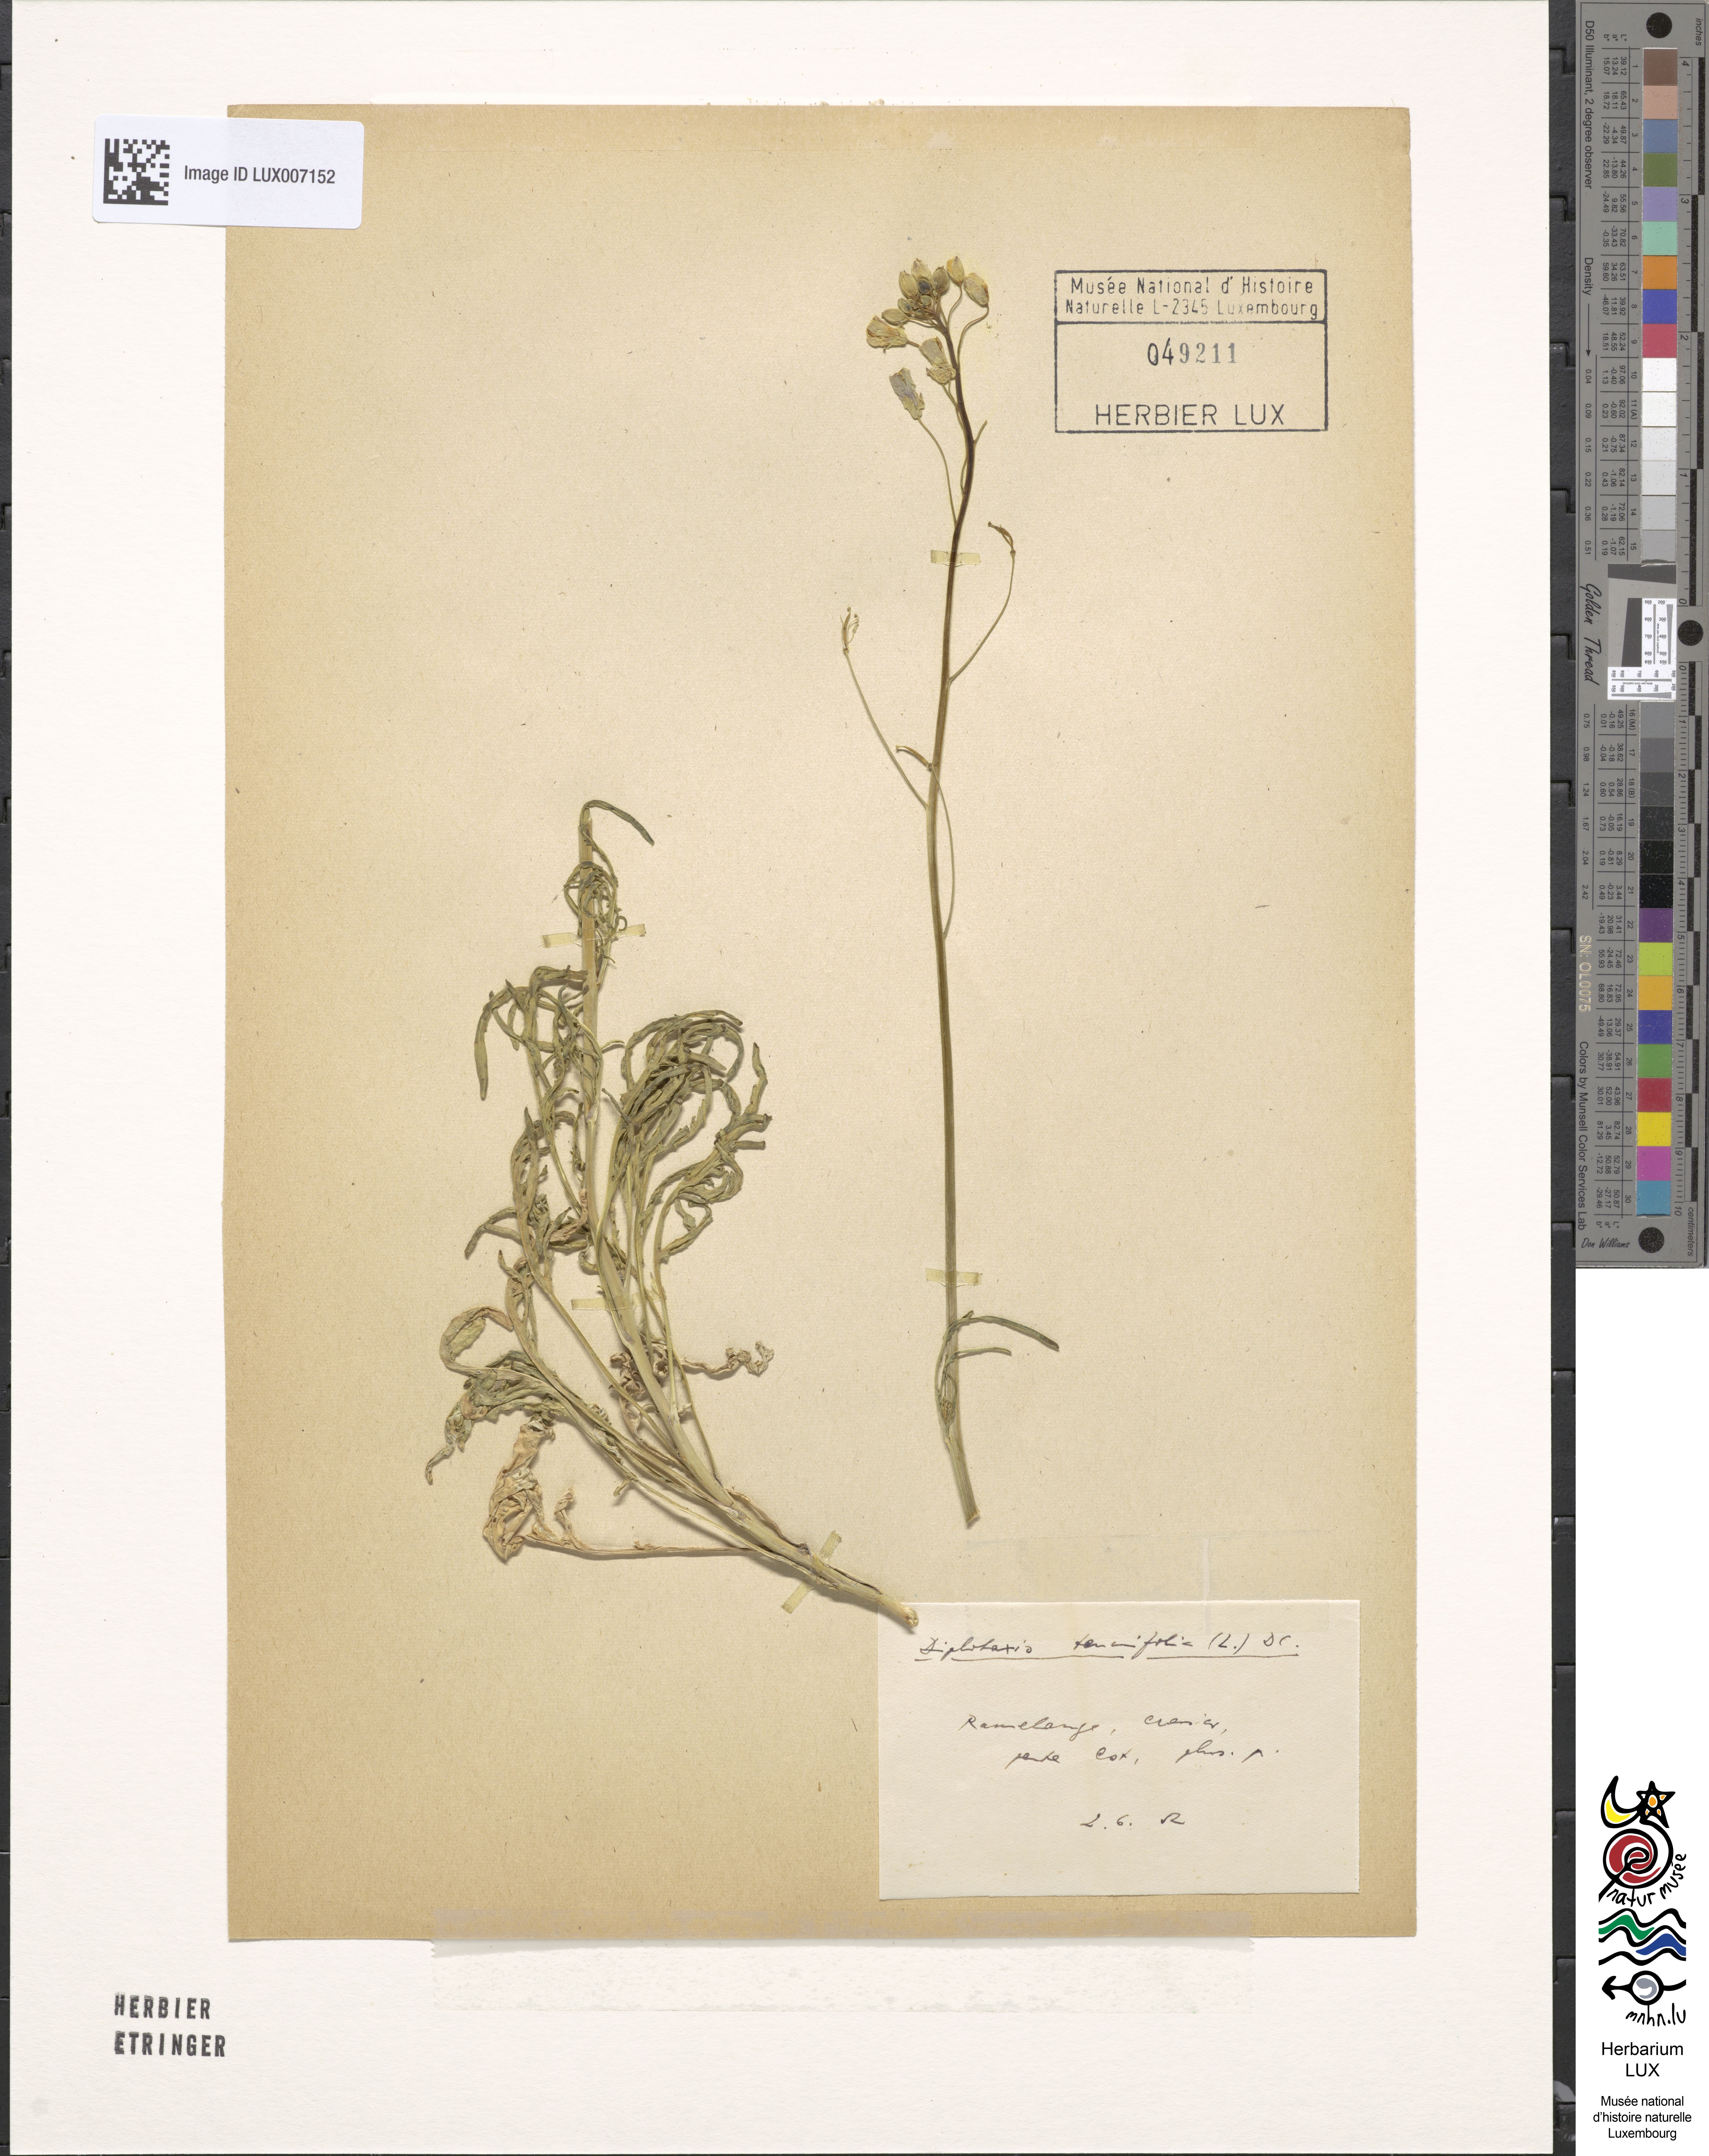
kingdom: Plantae
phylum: Tracheophyta
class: Magnoliopsida
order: Brassicales
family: Brassicaceae
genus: Diplotaxis
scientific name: Diplotaxis tenuifolia
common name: Perennial wall-rocket
